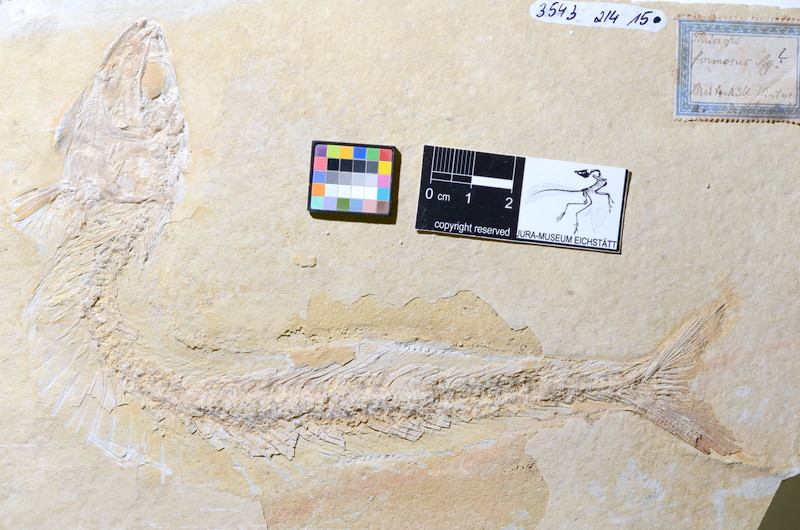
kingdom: Animalia
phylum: Chordata
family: Allothrissopidae
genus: Allothrissops
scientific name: Allothrissops
